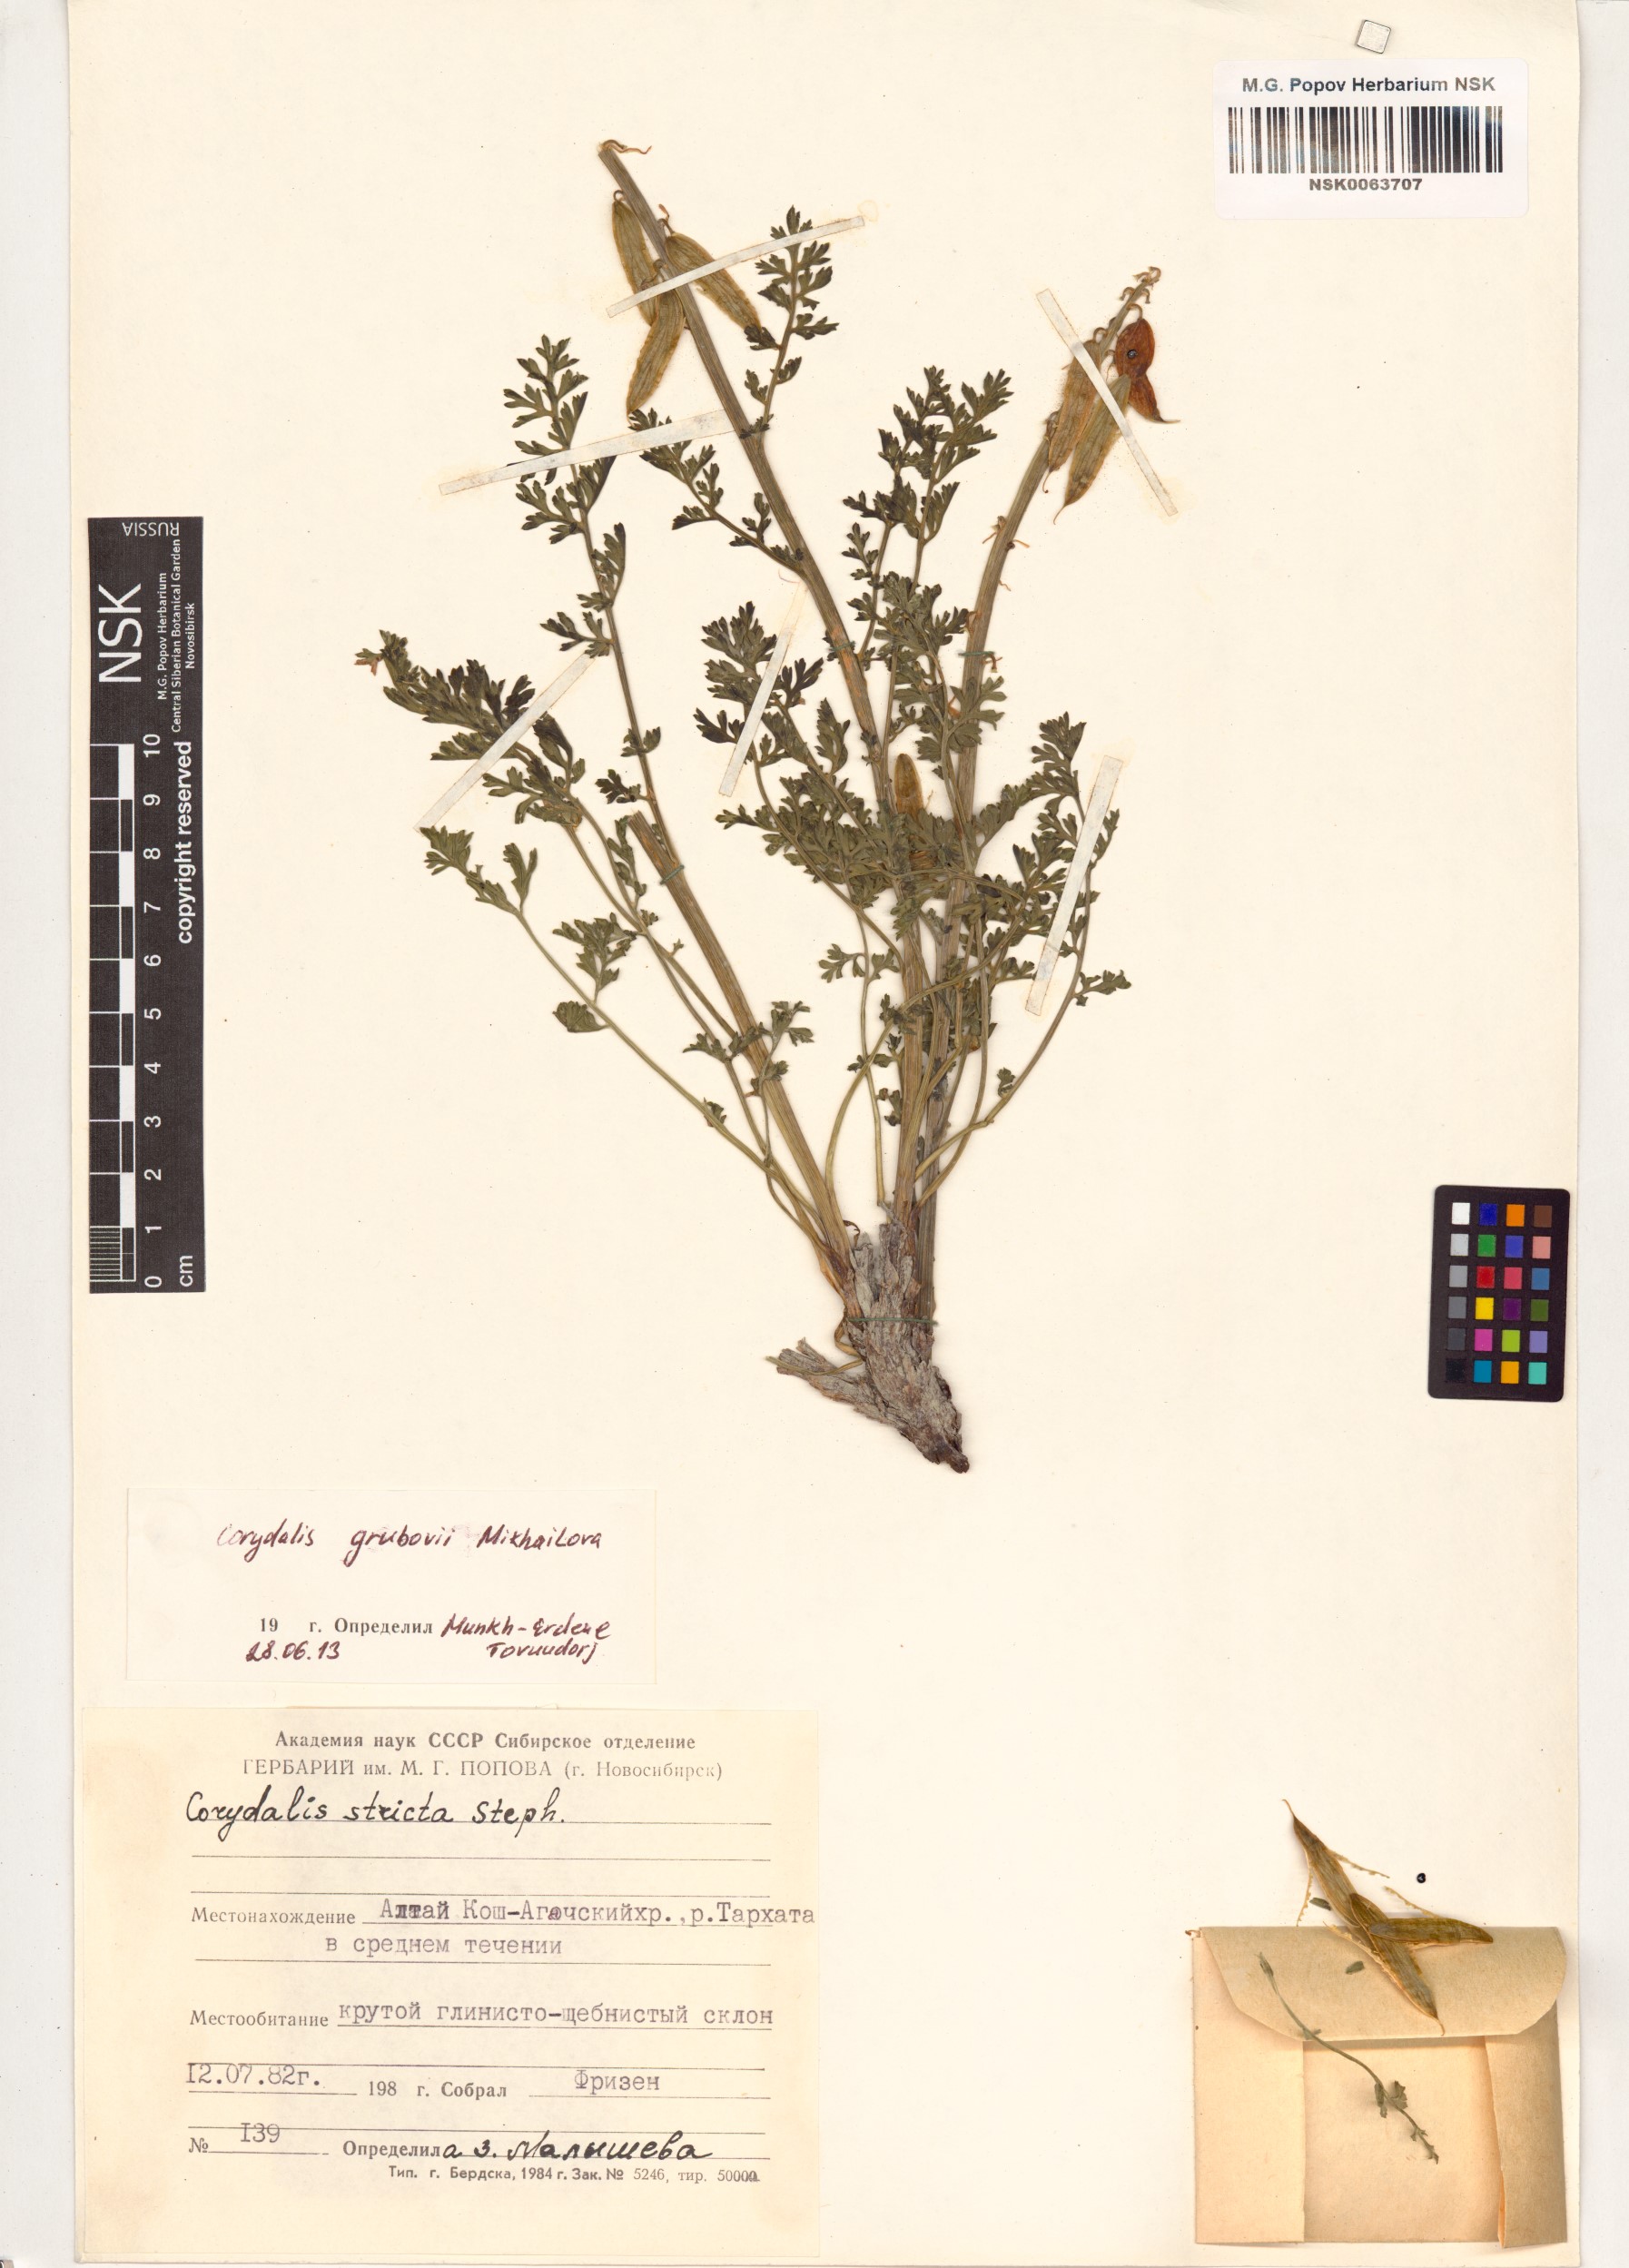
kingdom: Plantae
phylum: Tracheophyta
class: Magnoliopsida
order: Ranunculales
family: Papaveraceae
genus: Corydalis
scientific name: Corydalis stricta
